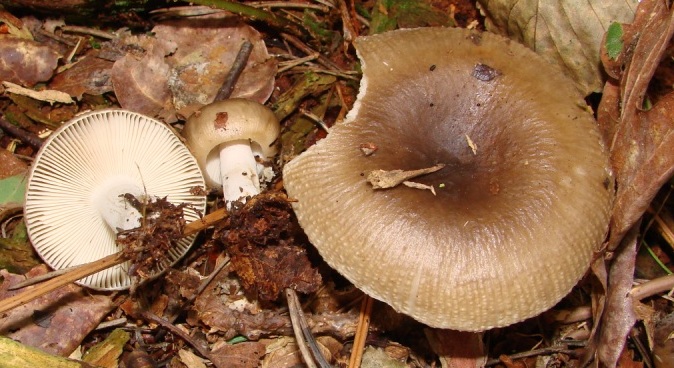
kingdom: Fungi
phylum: Basidiomycota
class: Agaricomycetes
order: Russulales
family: Russulaceae
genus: Russula
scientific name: Russula amoenolens
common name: skarp kam-skørhat
